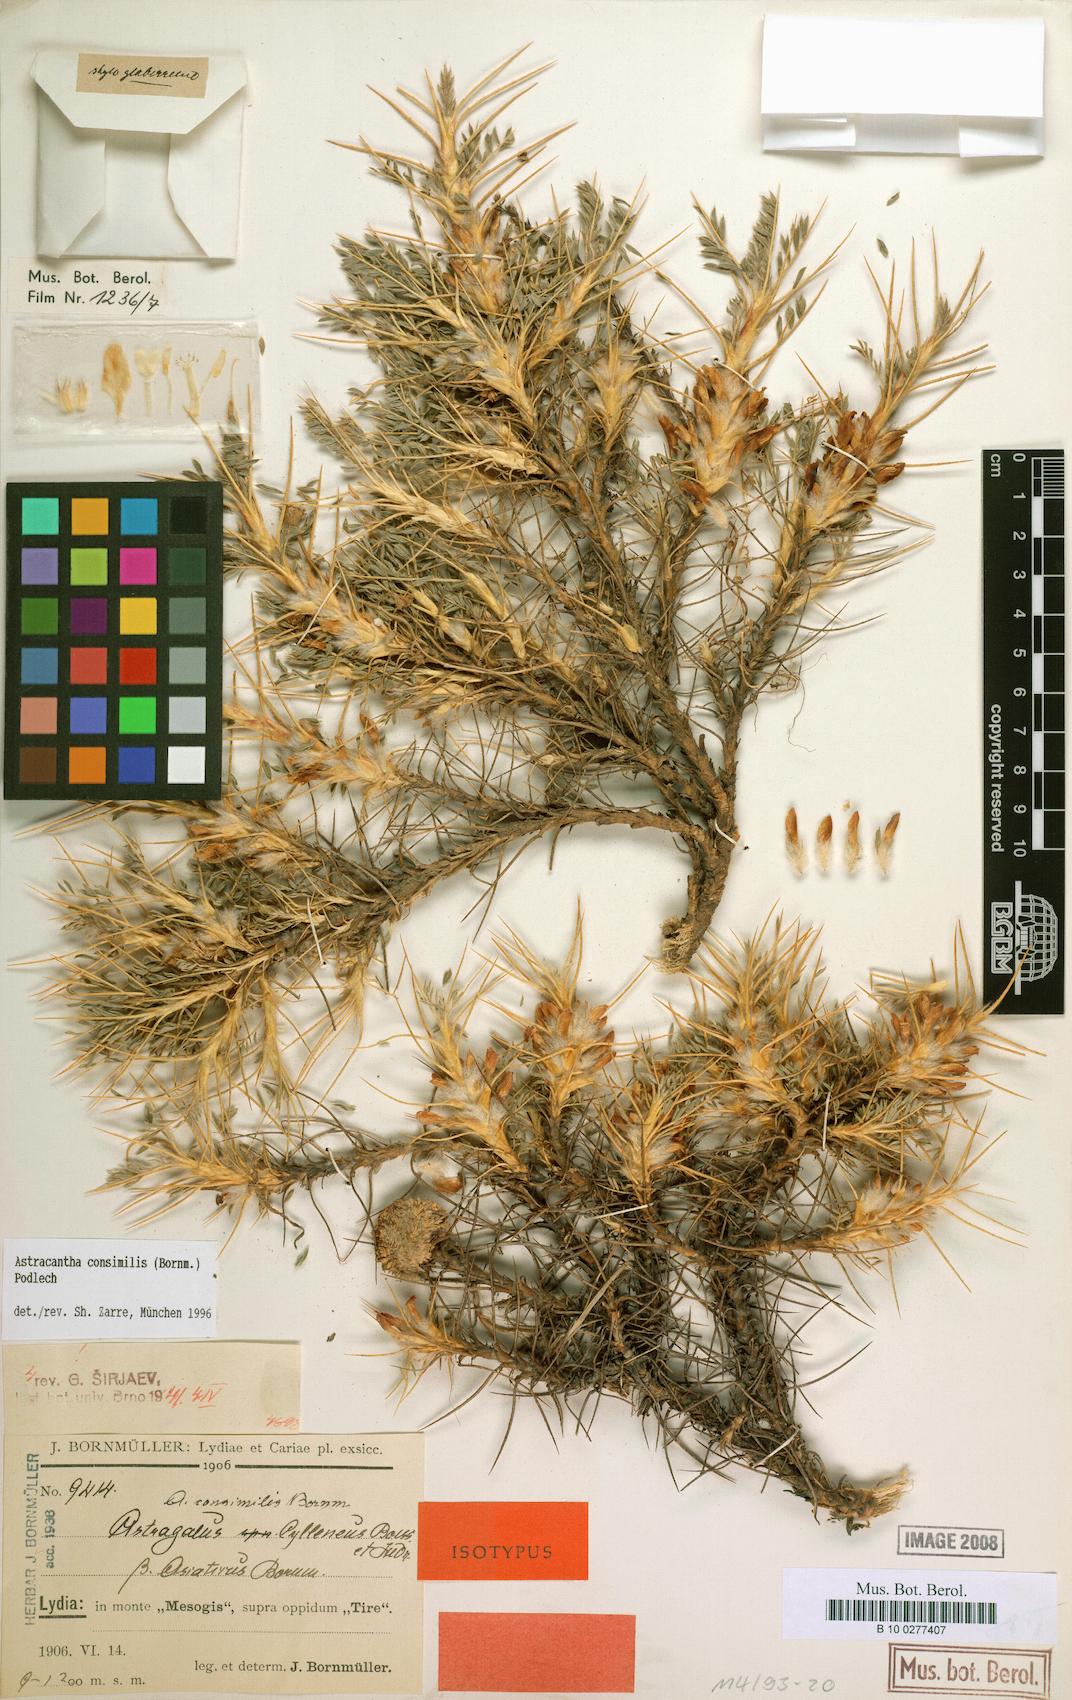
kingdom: Plantae
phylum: Tracheophyta
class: Magnoliopsida
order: Fabales
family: Fabaceae
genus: Astragalus
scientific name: Astragalus consimilis
